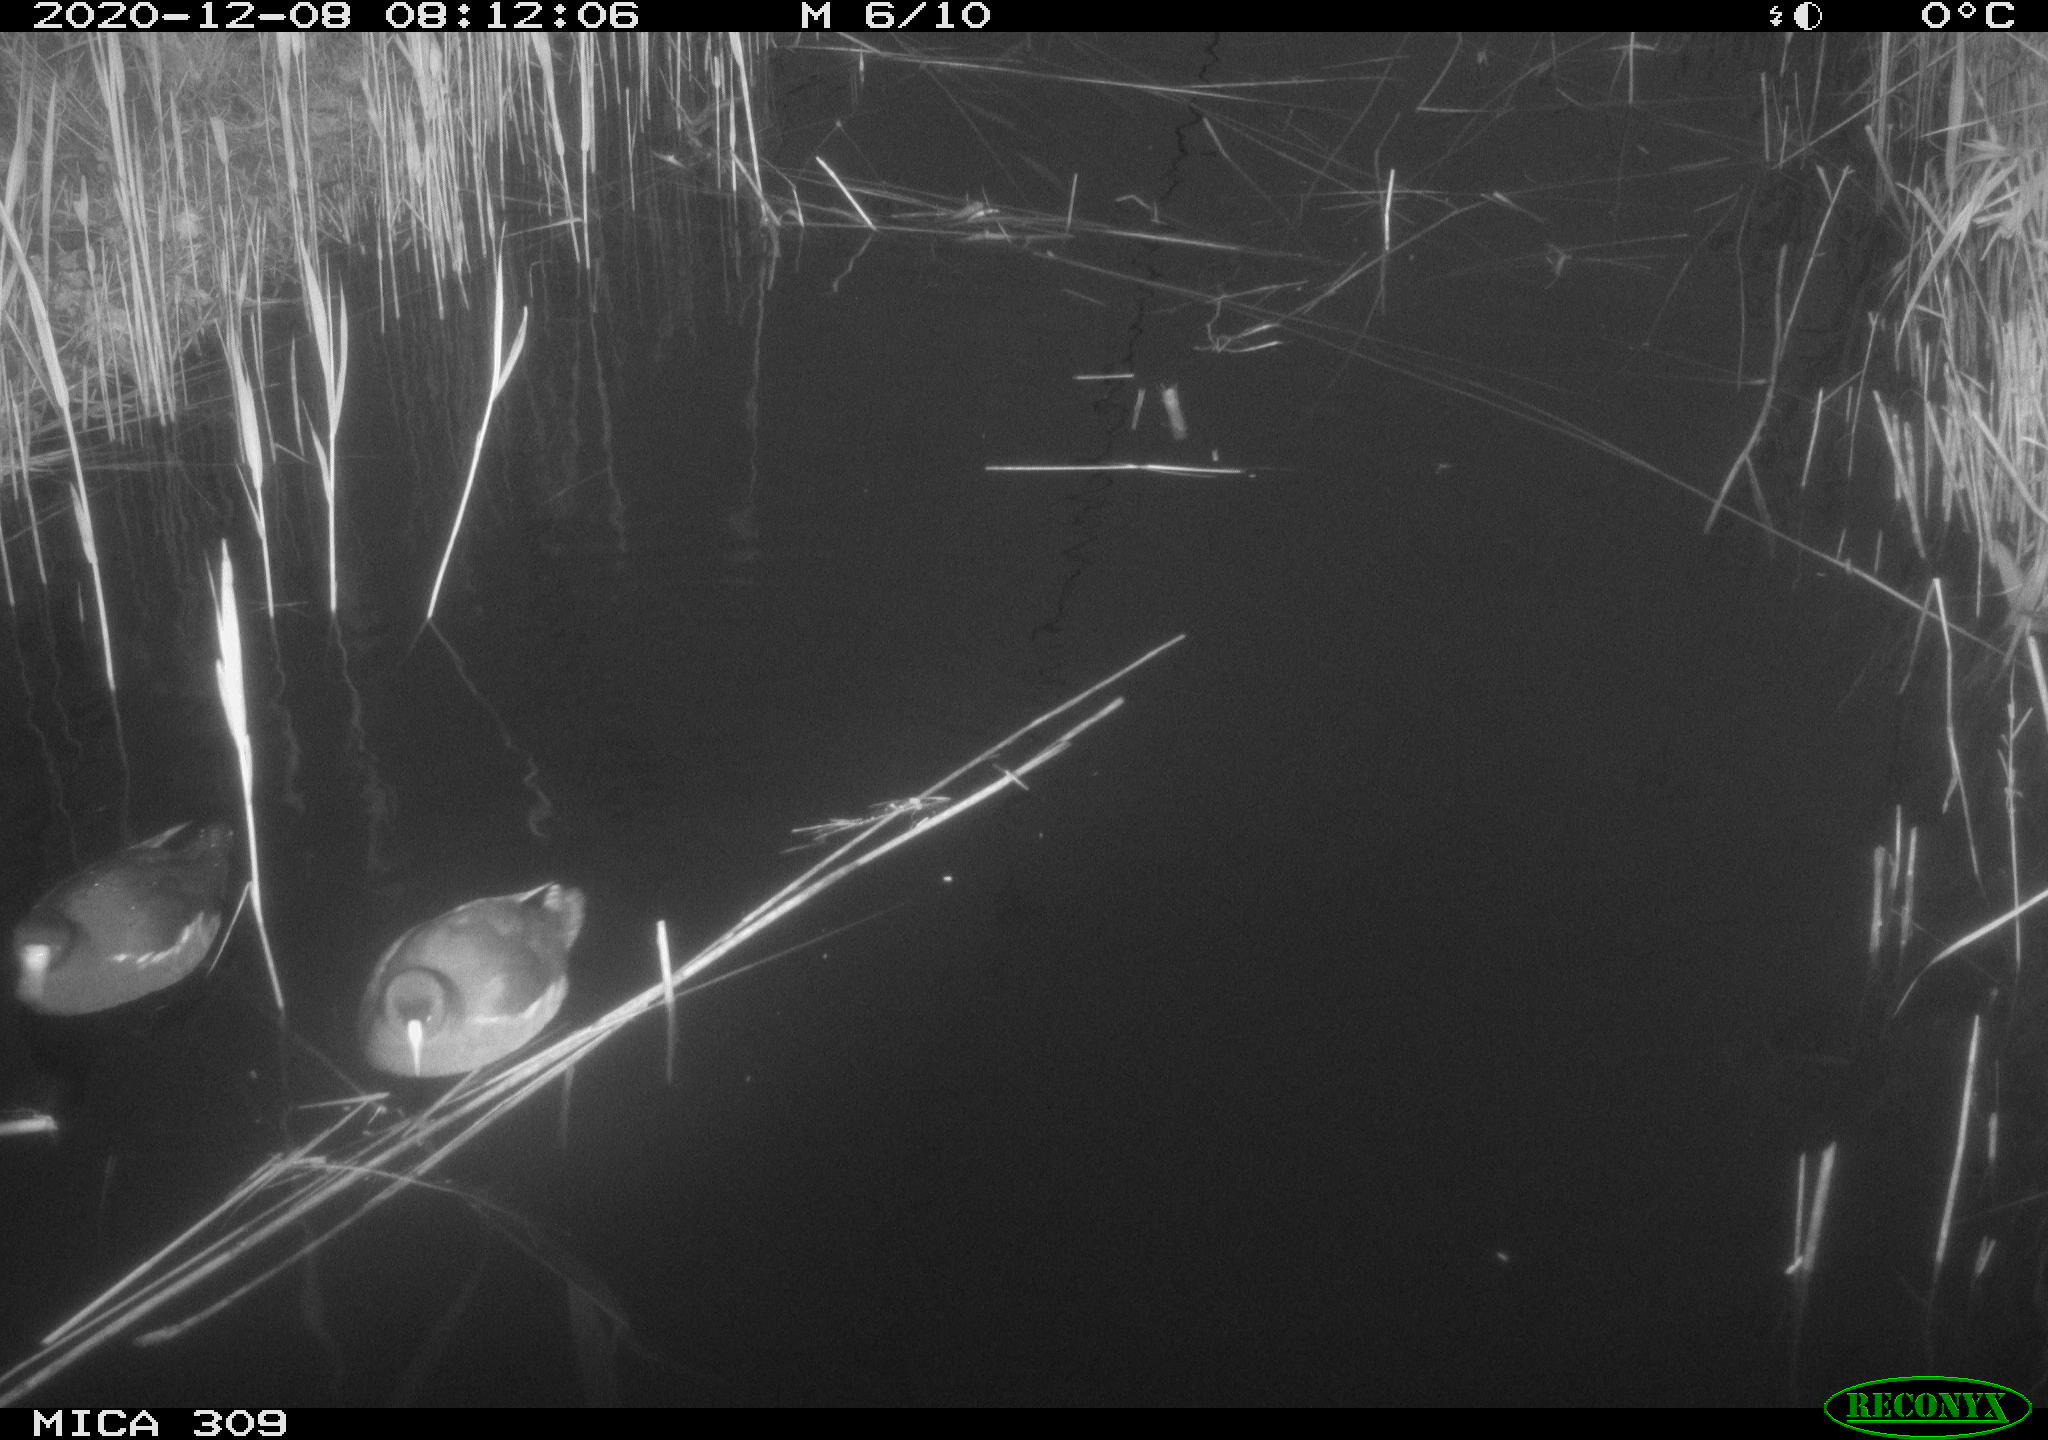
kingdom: Animalia
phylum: Chordata
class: Aves
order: Gruiformes
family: Rallidae
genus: Fulica
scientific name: Fulica atra
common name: Eurasian coot
